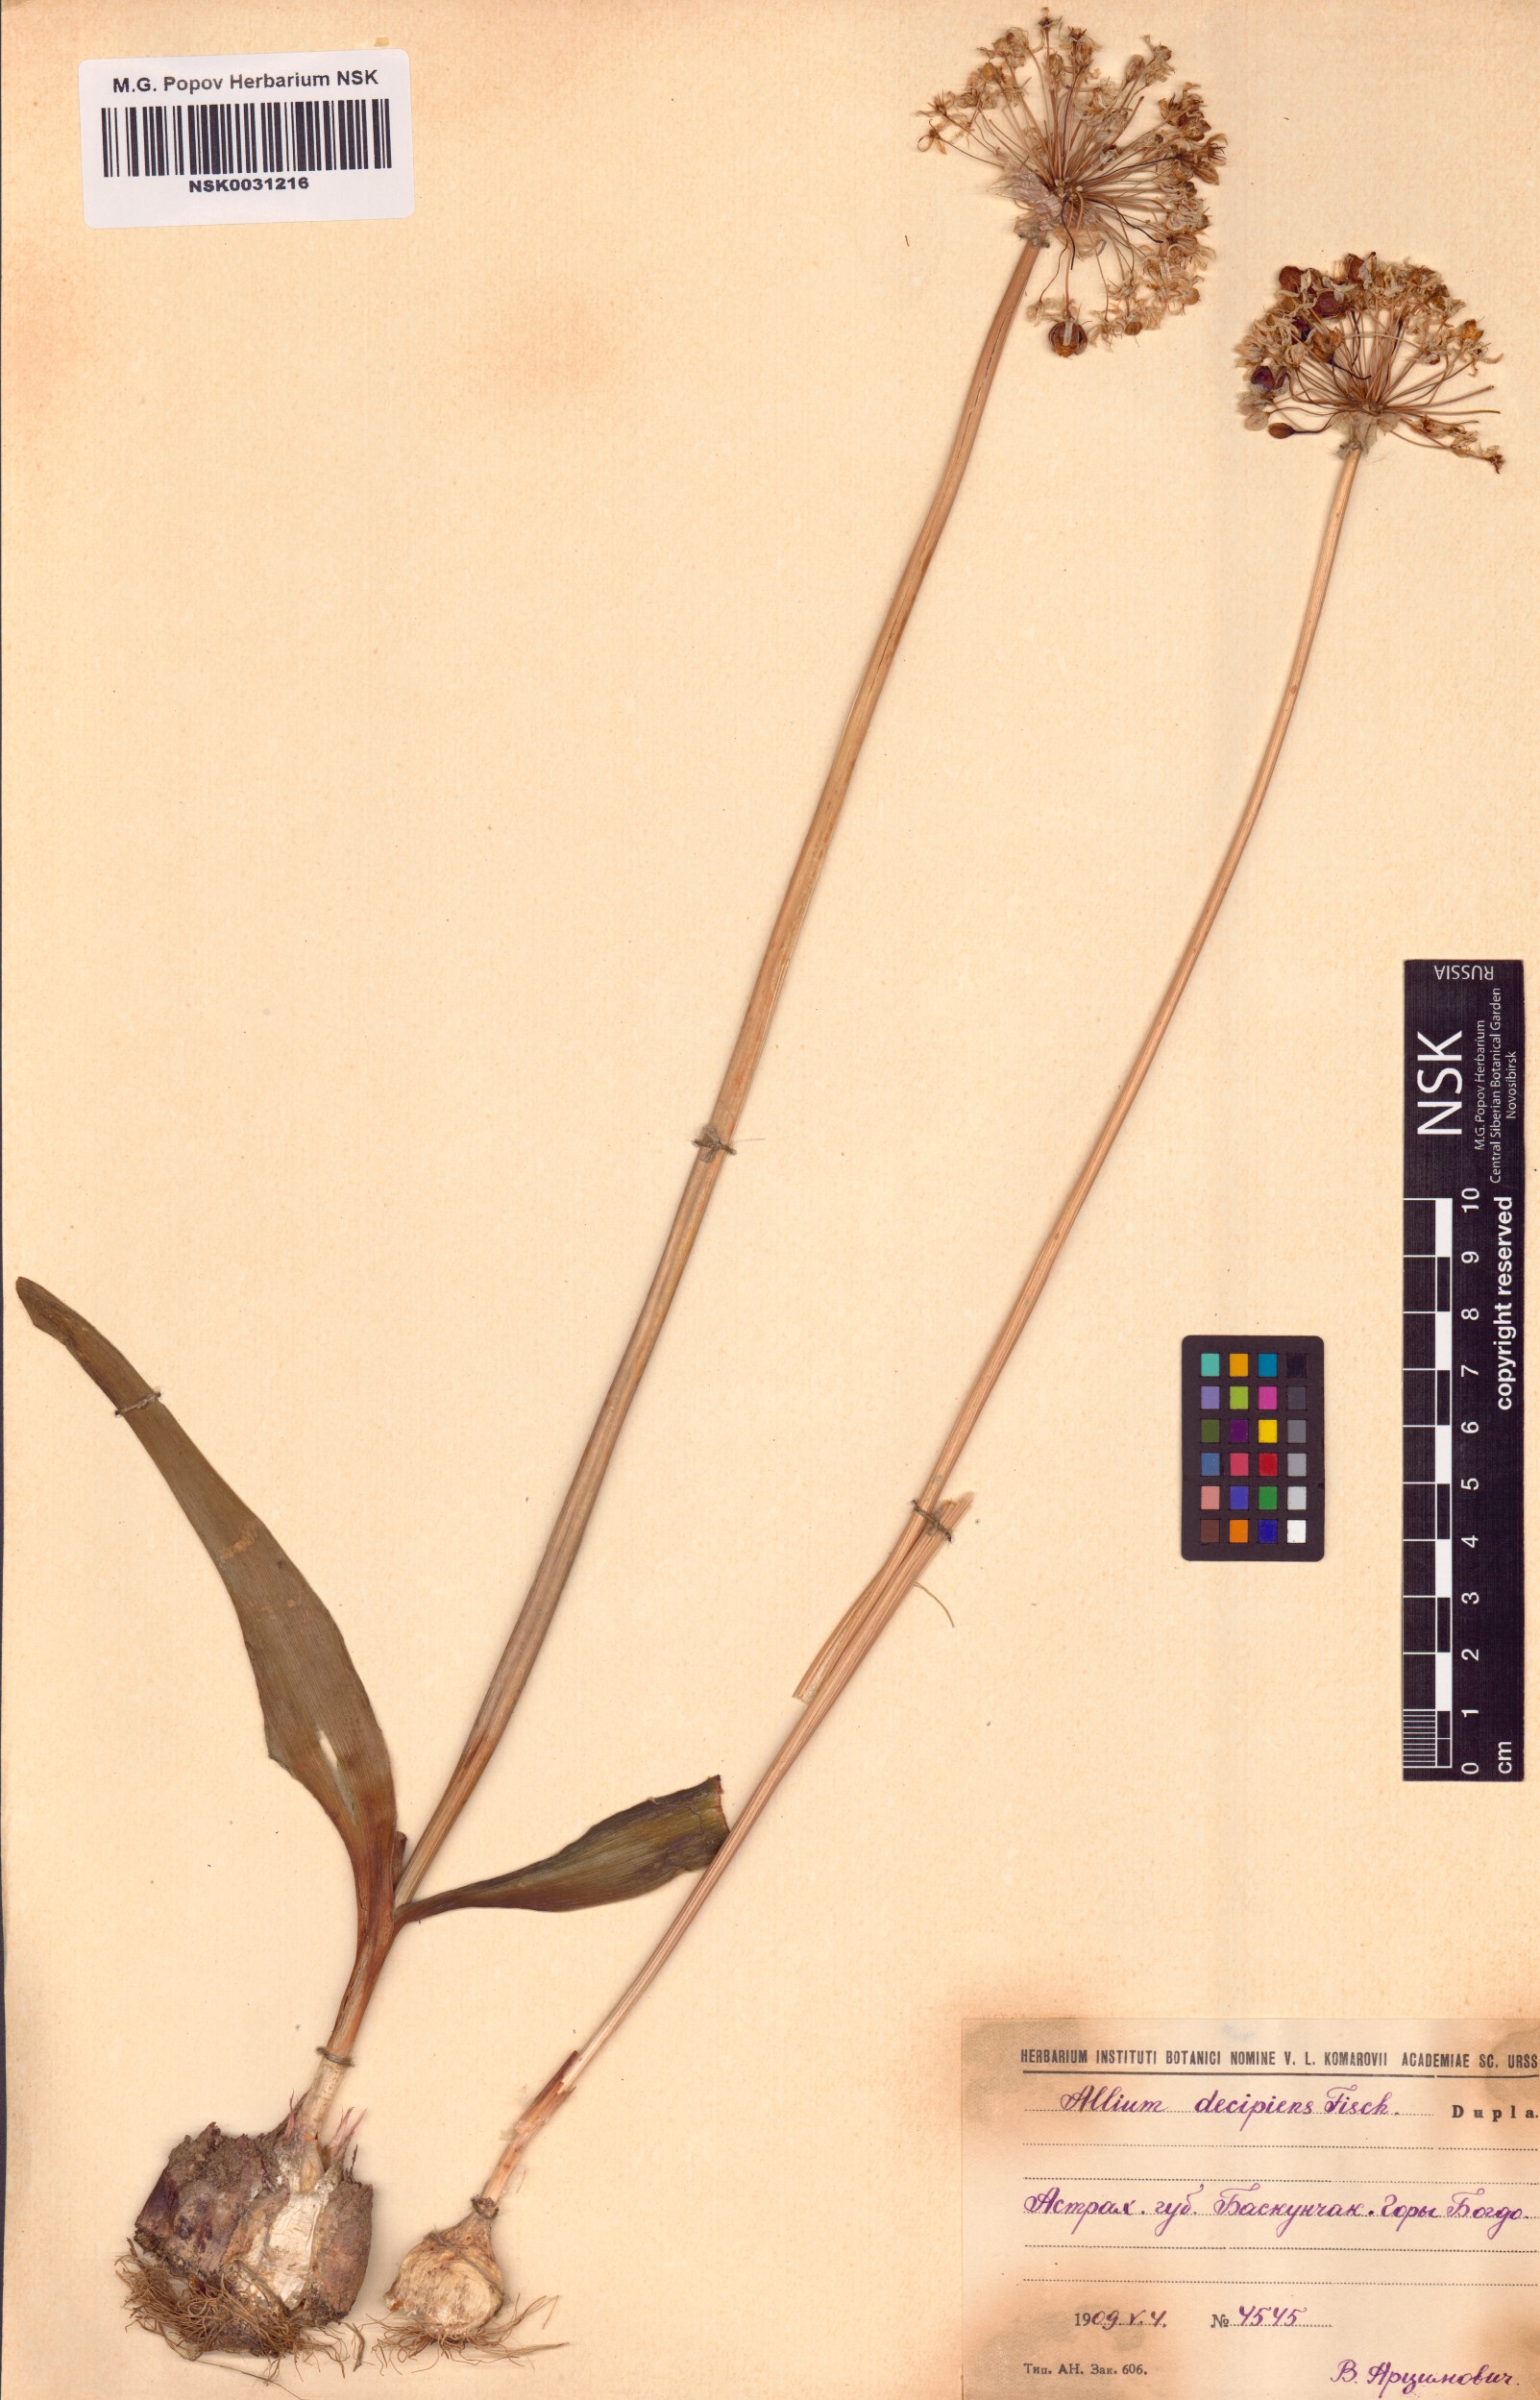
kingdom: Plantae
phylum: Tracheophyta
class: Liliopsida
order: Asparagales
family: Amaryllidaceae
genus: Allium
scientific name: Allium decipiens
